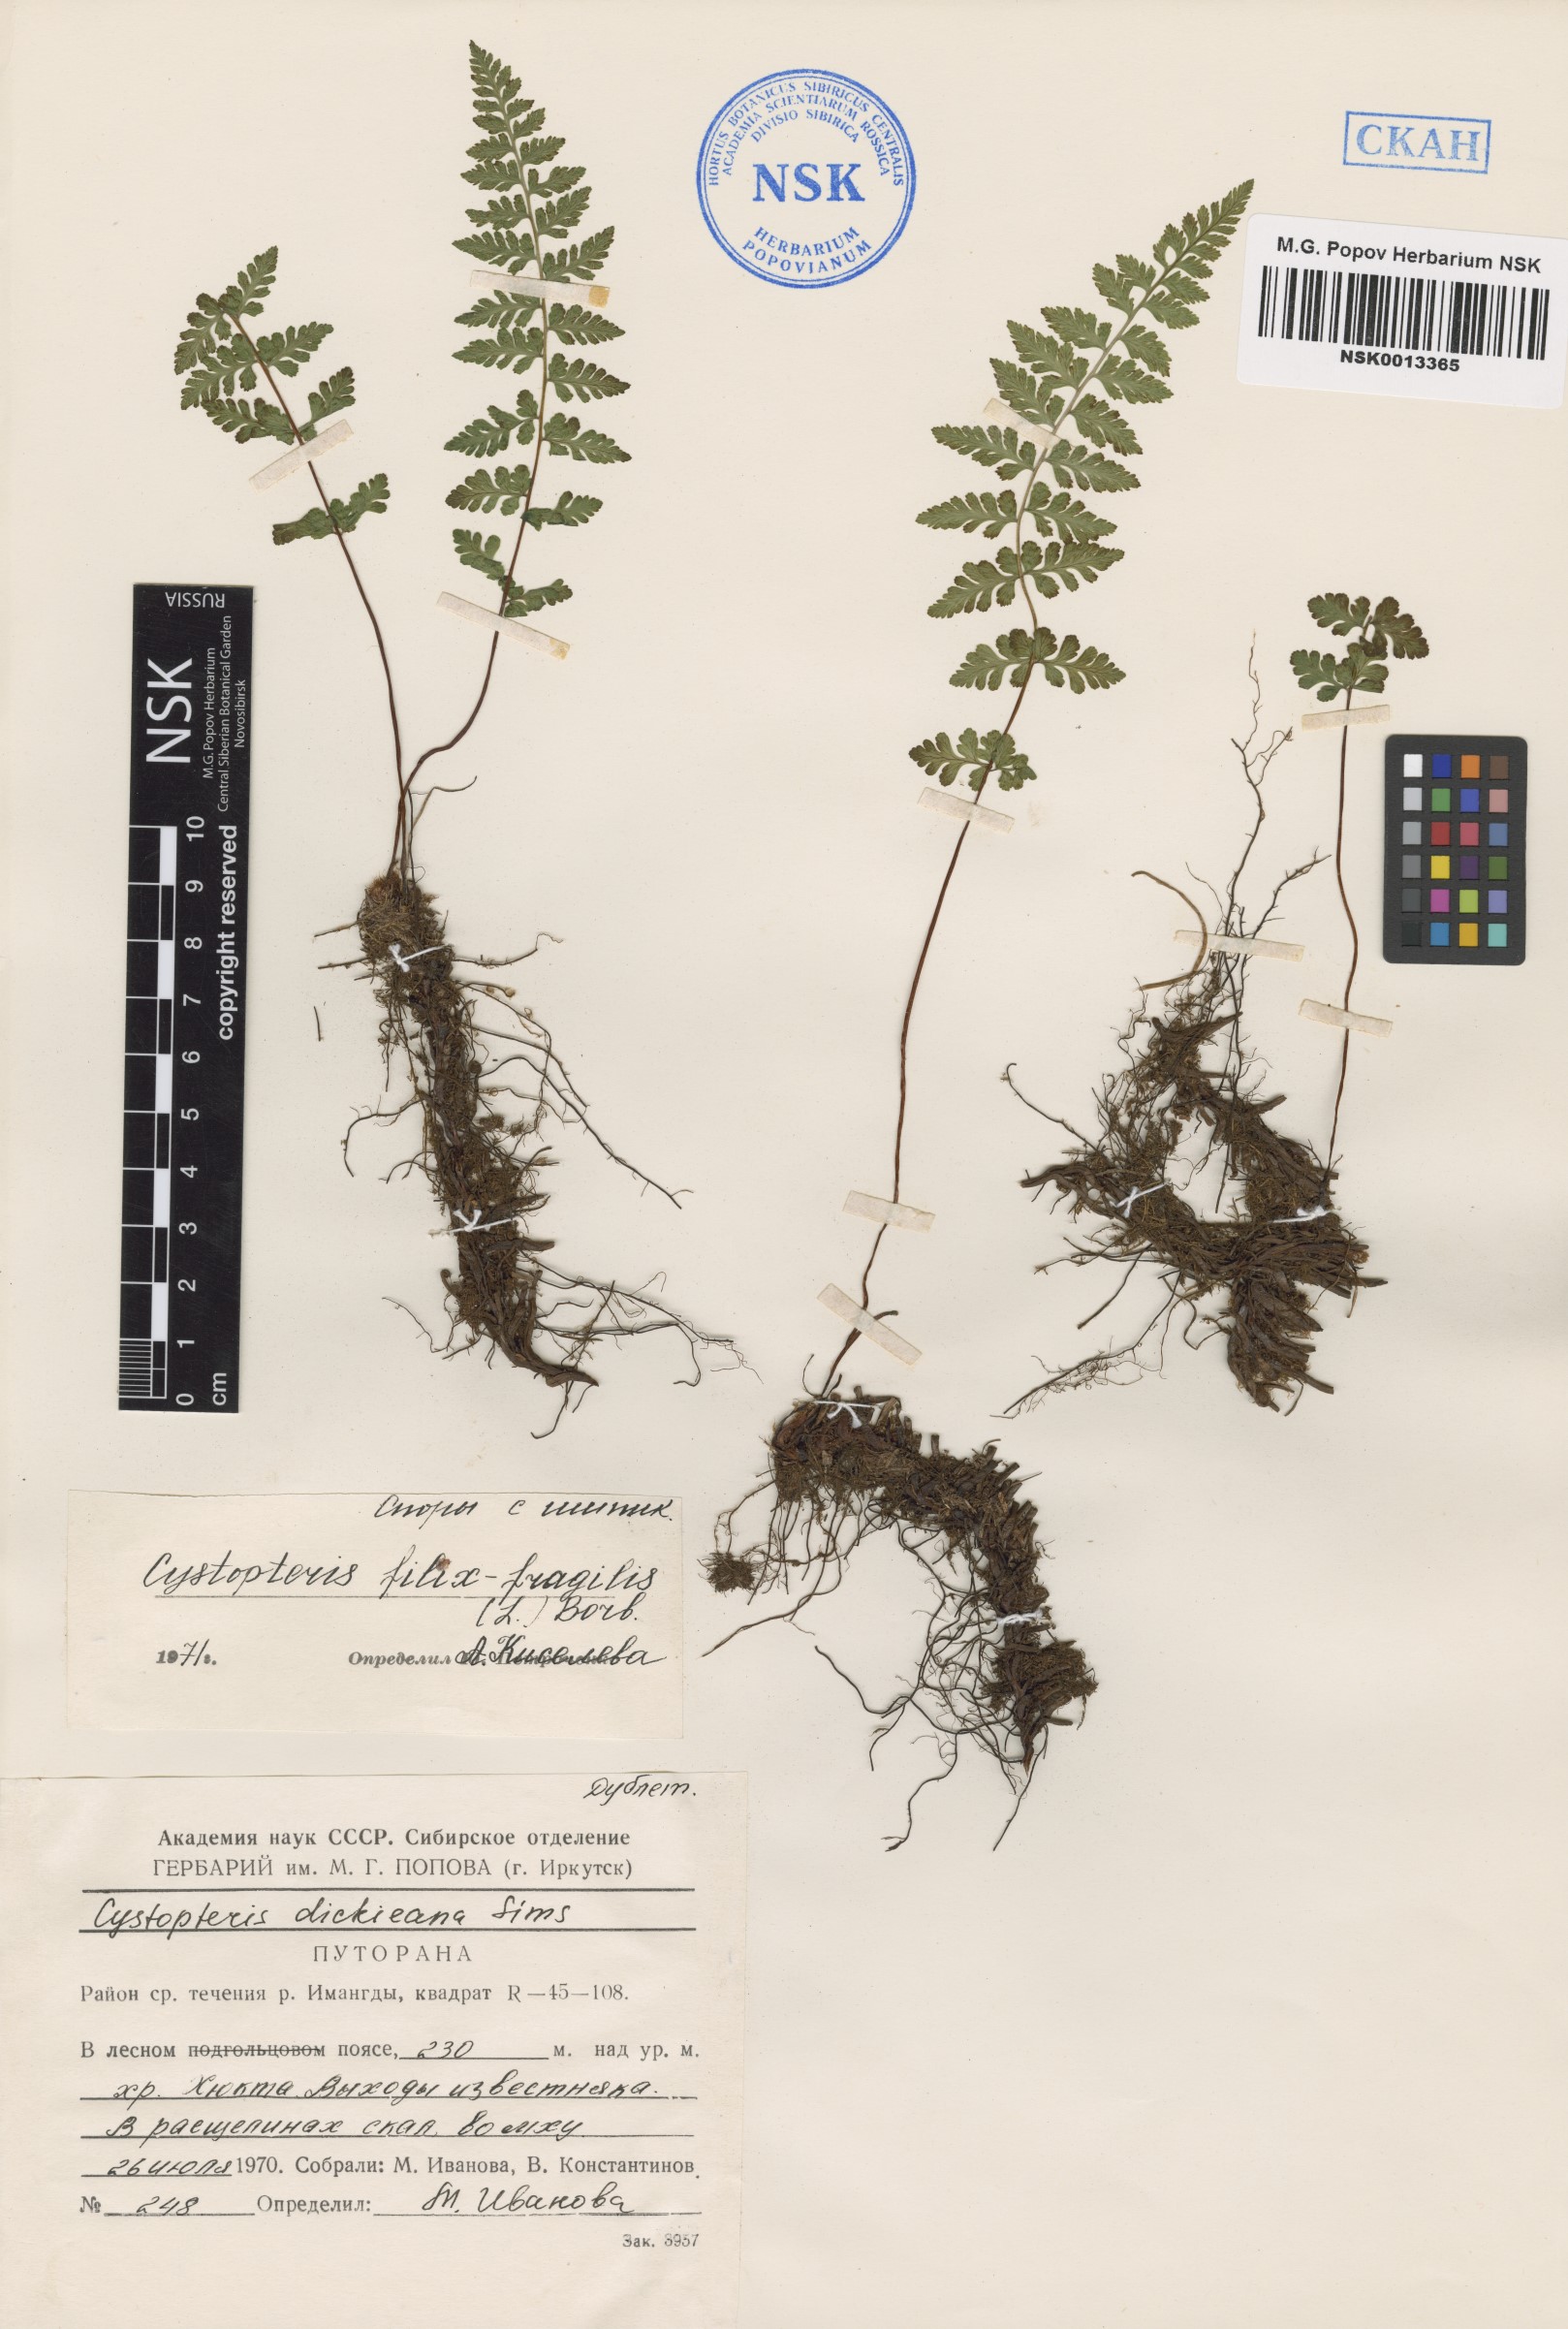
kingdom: Plantae
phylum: Tracheophyta
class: Polypodiopsida
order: Polypodiales
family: Cystopteridaceae
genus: Cystopteris
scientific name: Cystopteris fragilis
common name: Brittle bladder fern
